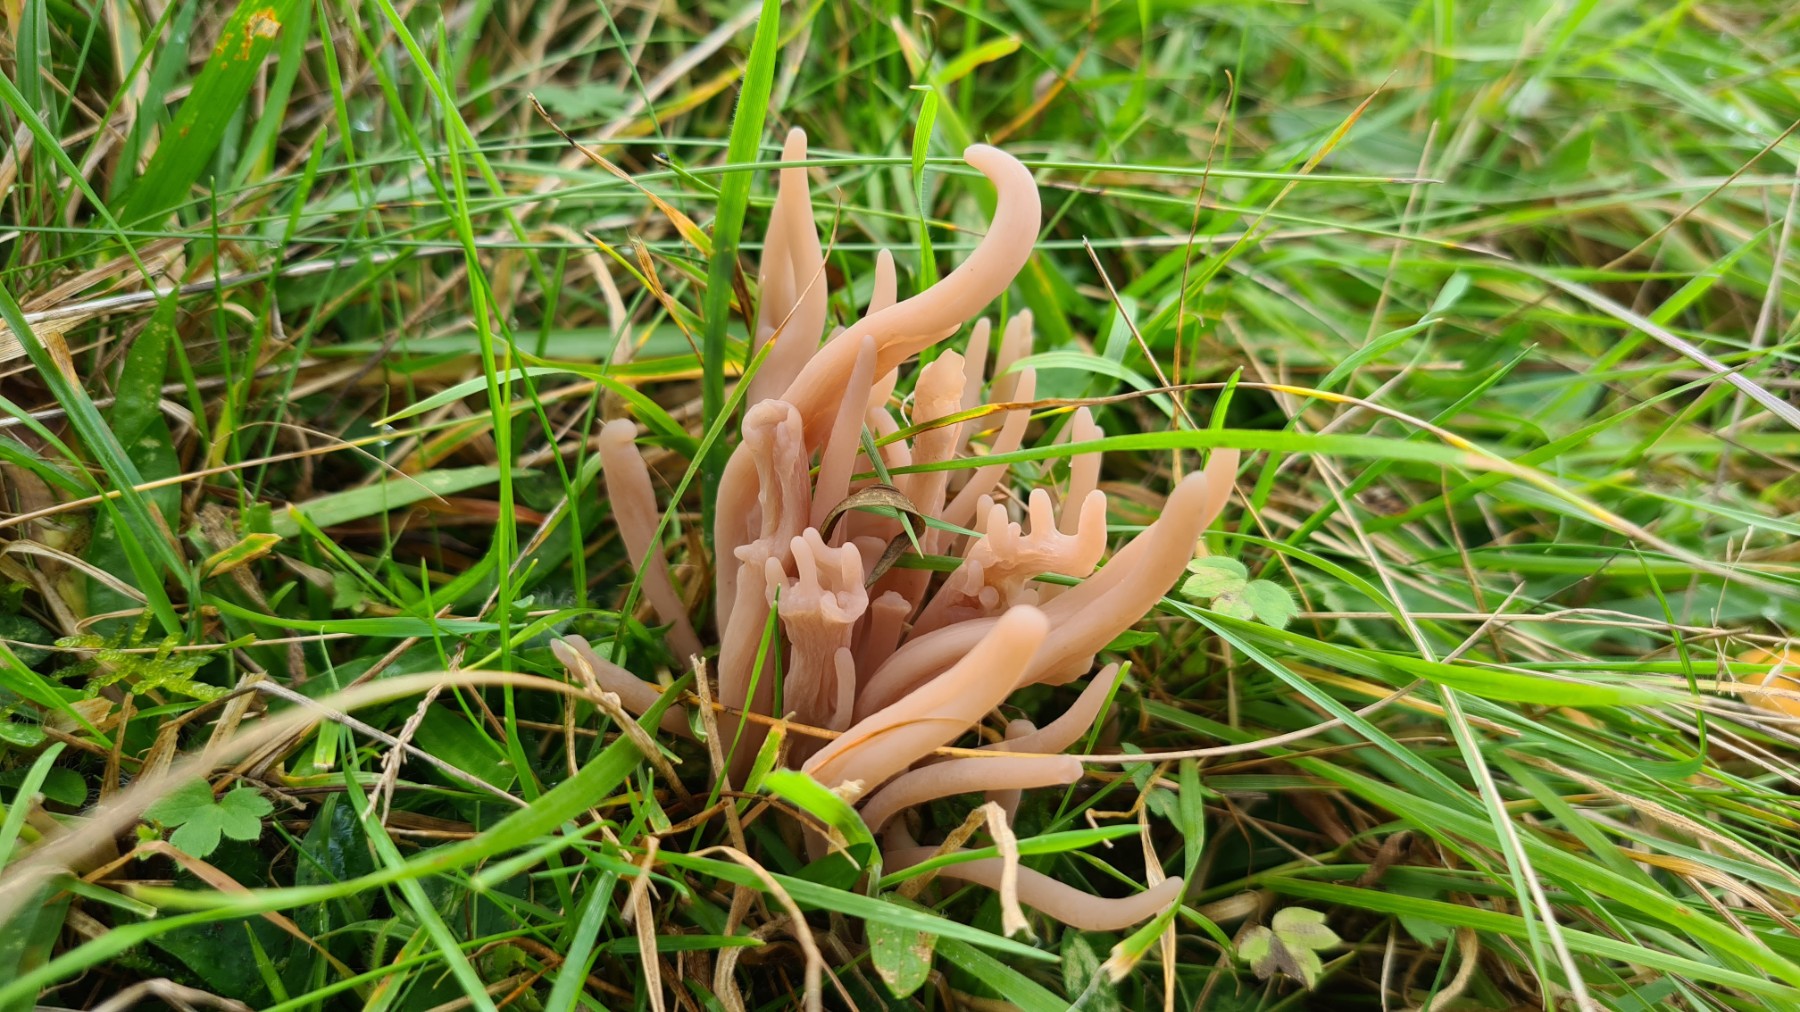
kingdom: Fungi
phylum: Basidiomycota
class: Agaricomycetes
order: Agaricales
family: Clavariaceae
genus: Clavaria
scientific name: Clavaria fumosa
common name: røggrå køllesvamp
